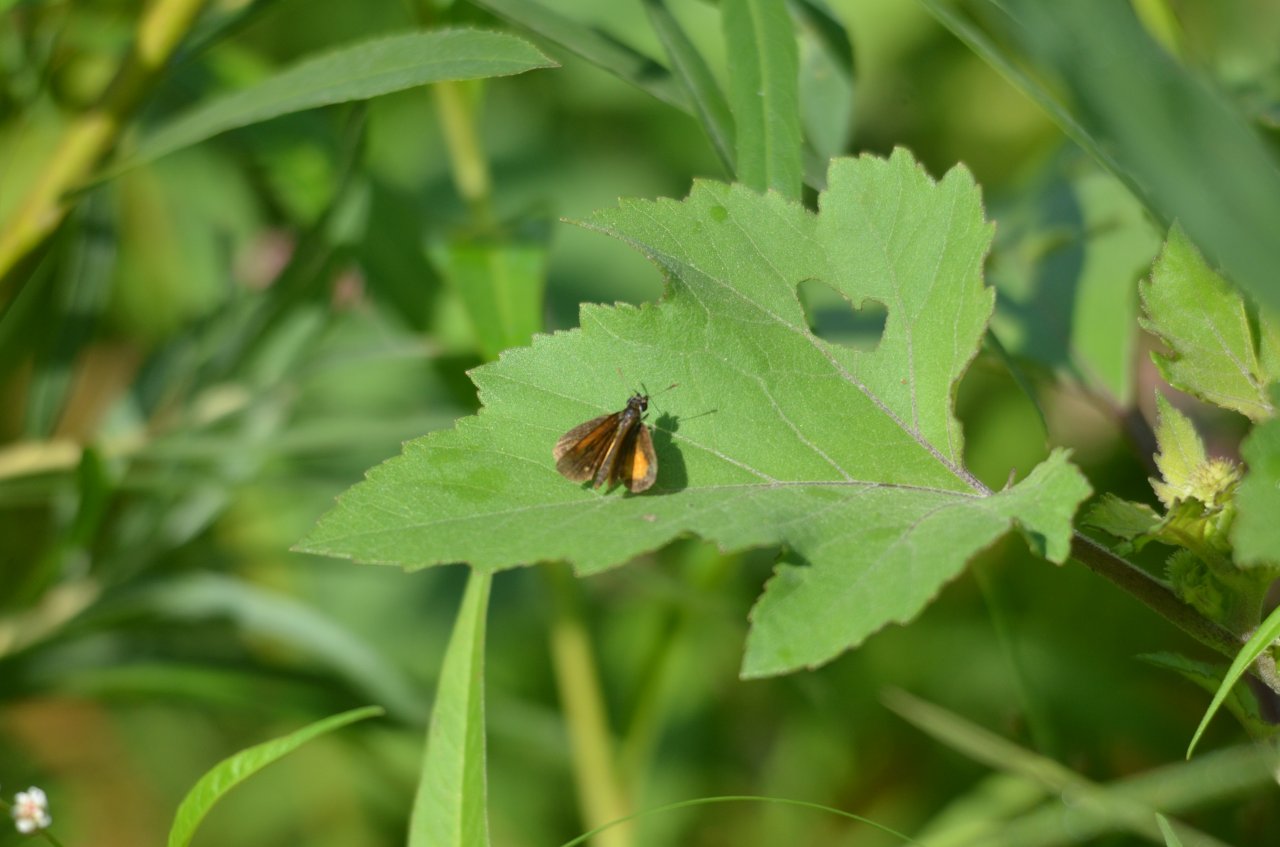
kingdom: Animalia
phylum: Arthropoda
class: Insecta
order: Lepidoptera
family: Hesperiidae
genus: Ancyloxypha
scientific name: Ancyloxypha numitor
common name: Least Skipper
